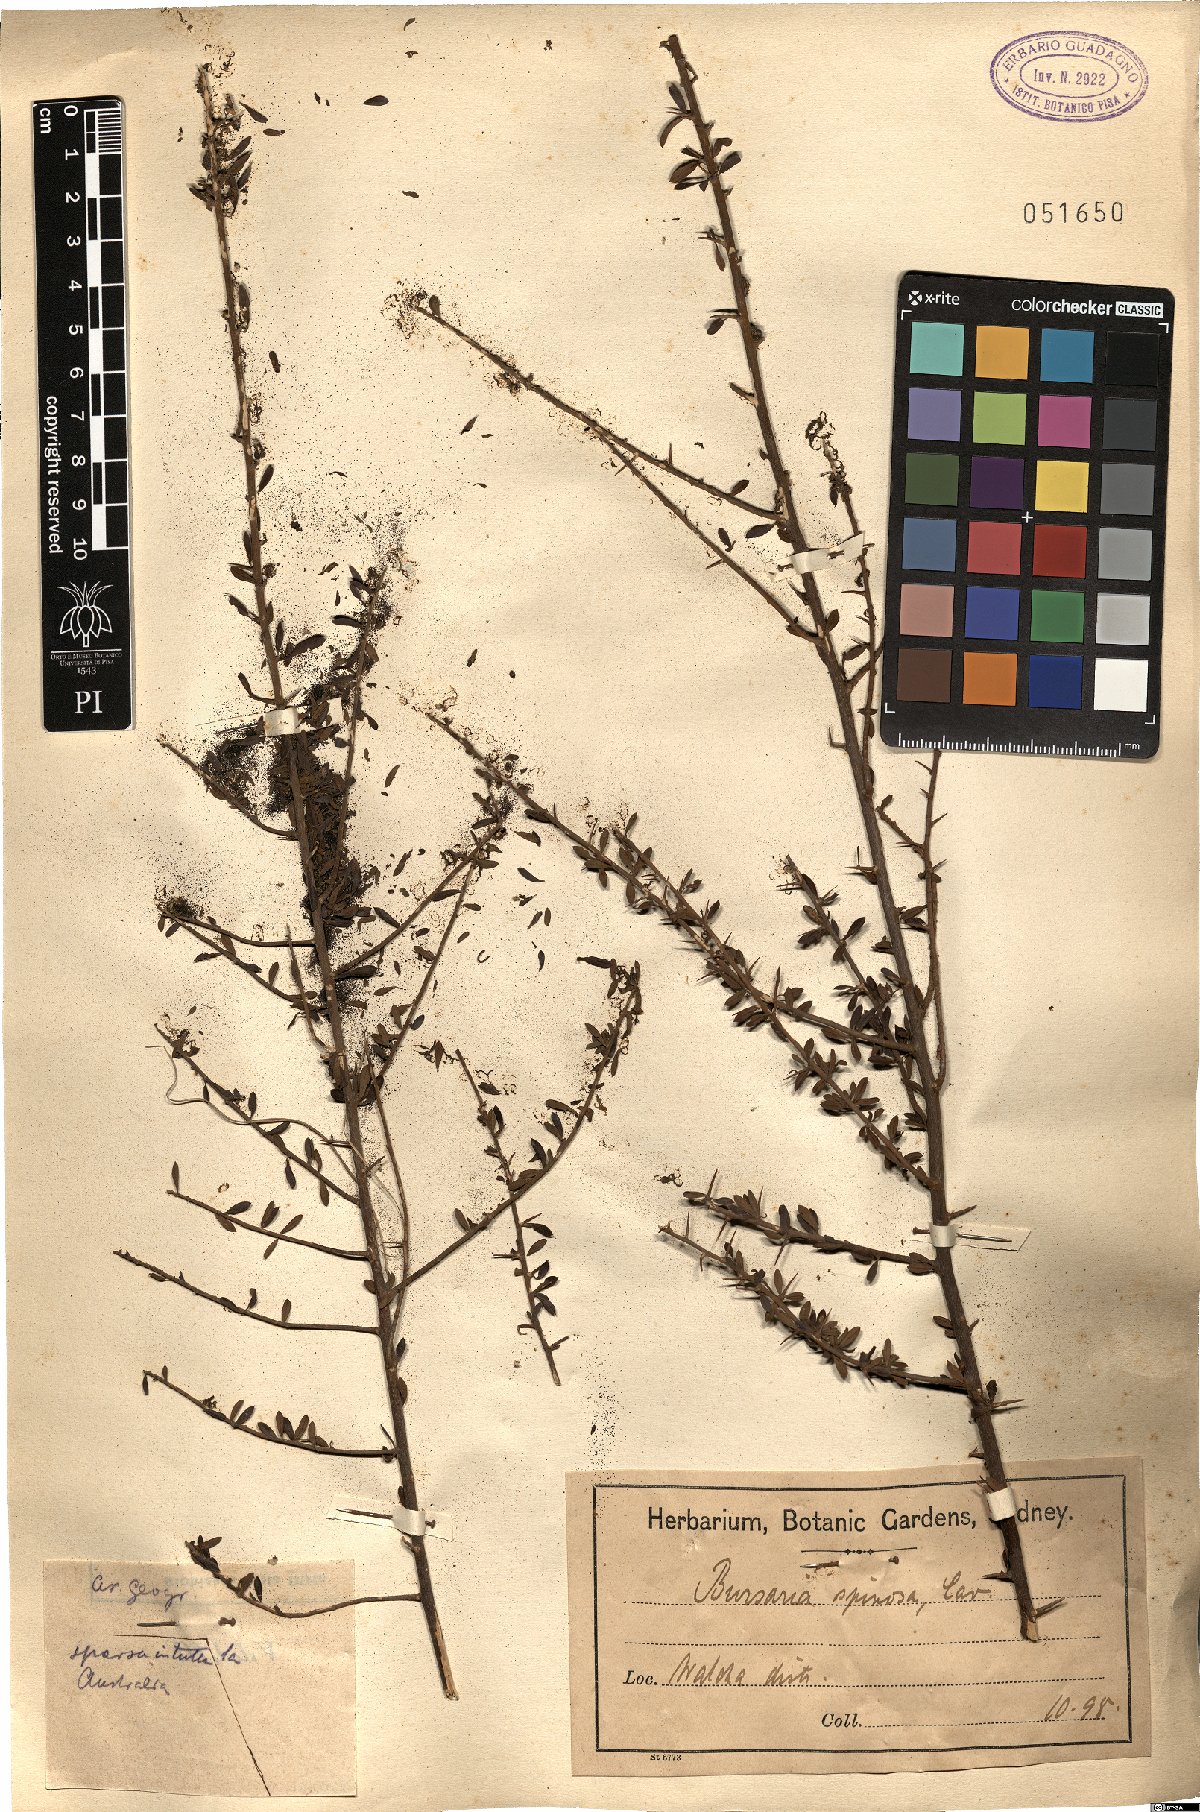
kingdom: Plantae
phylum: Tracheophyta
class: Magnoliopsida
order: Apiales
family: Pittosporaceae
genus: Bursaria
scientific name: Bursaria spinosa
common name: Australian blackthorn
